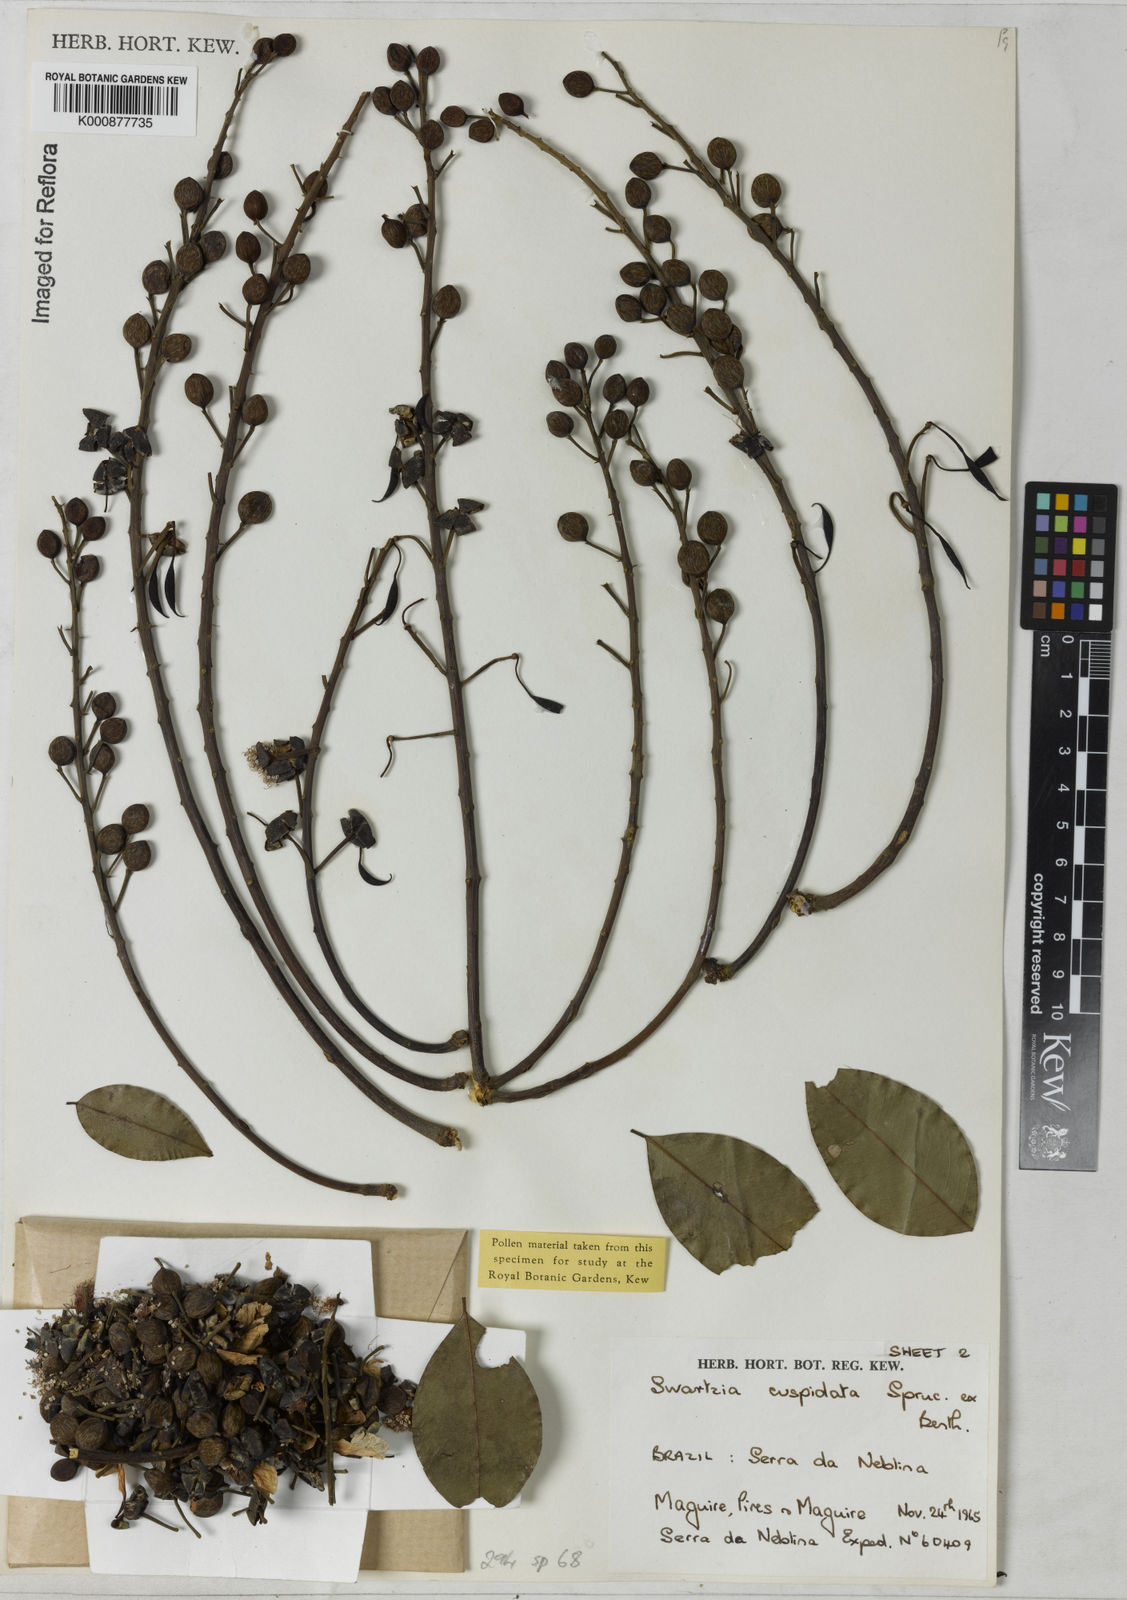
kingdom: Plantae
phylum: Tracheophyta
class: Magnoliopsida
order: Fabales
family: Fabaceae
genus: Swartzia
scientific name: Swartzia
